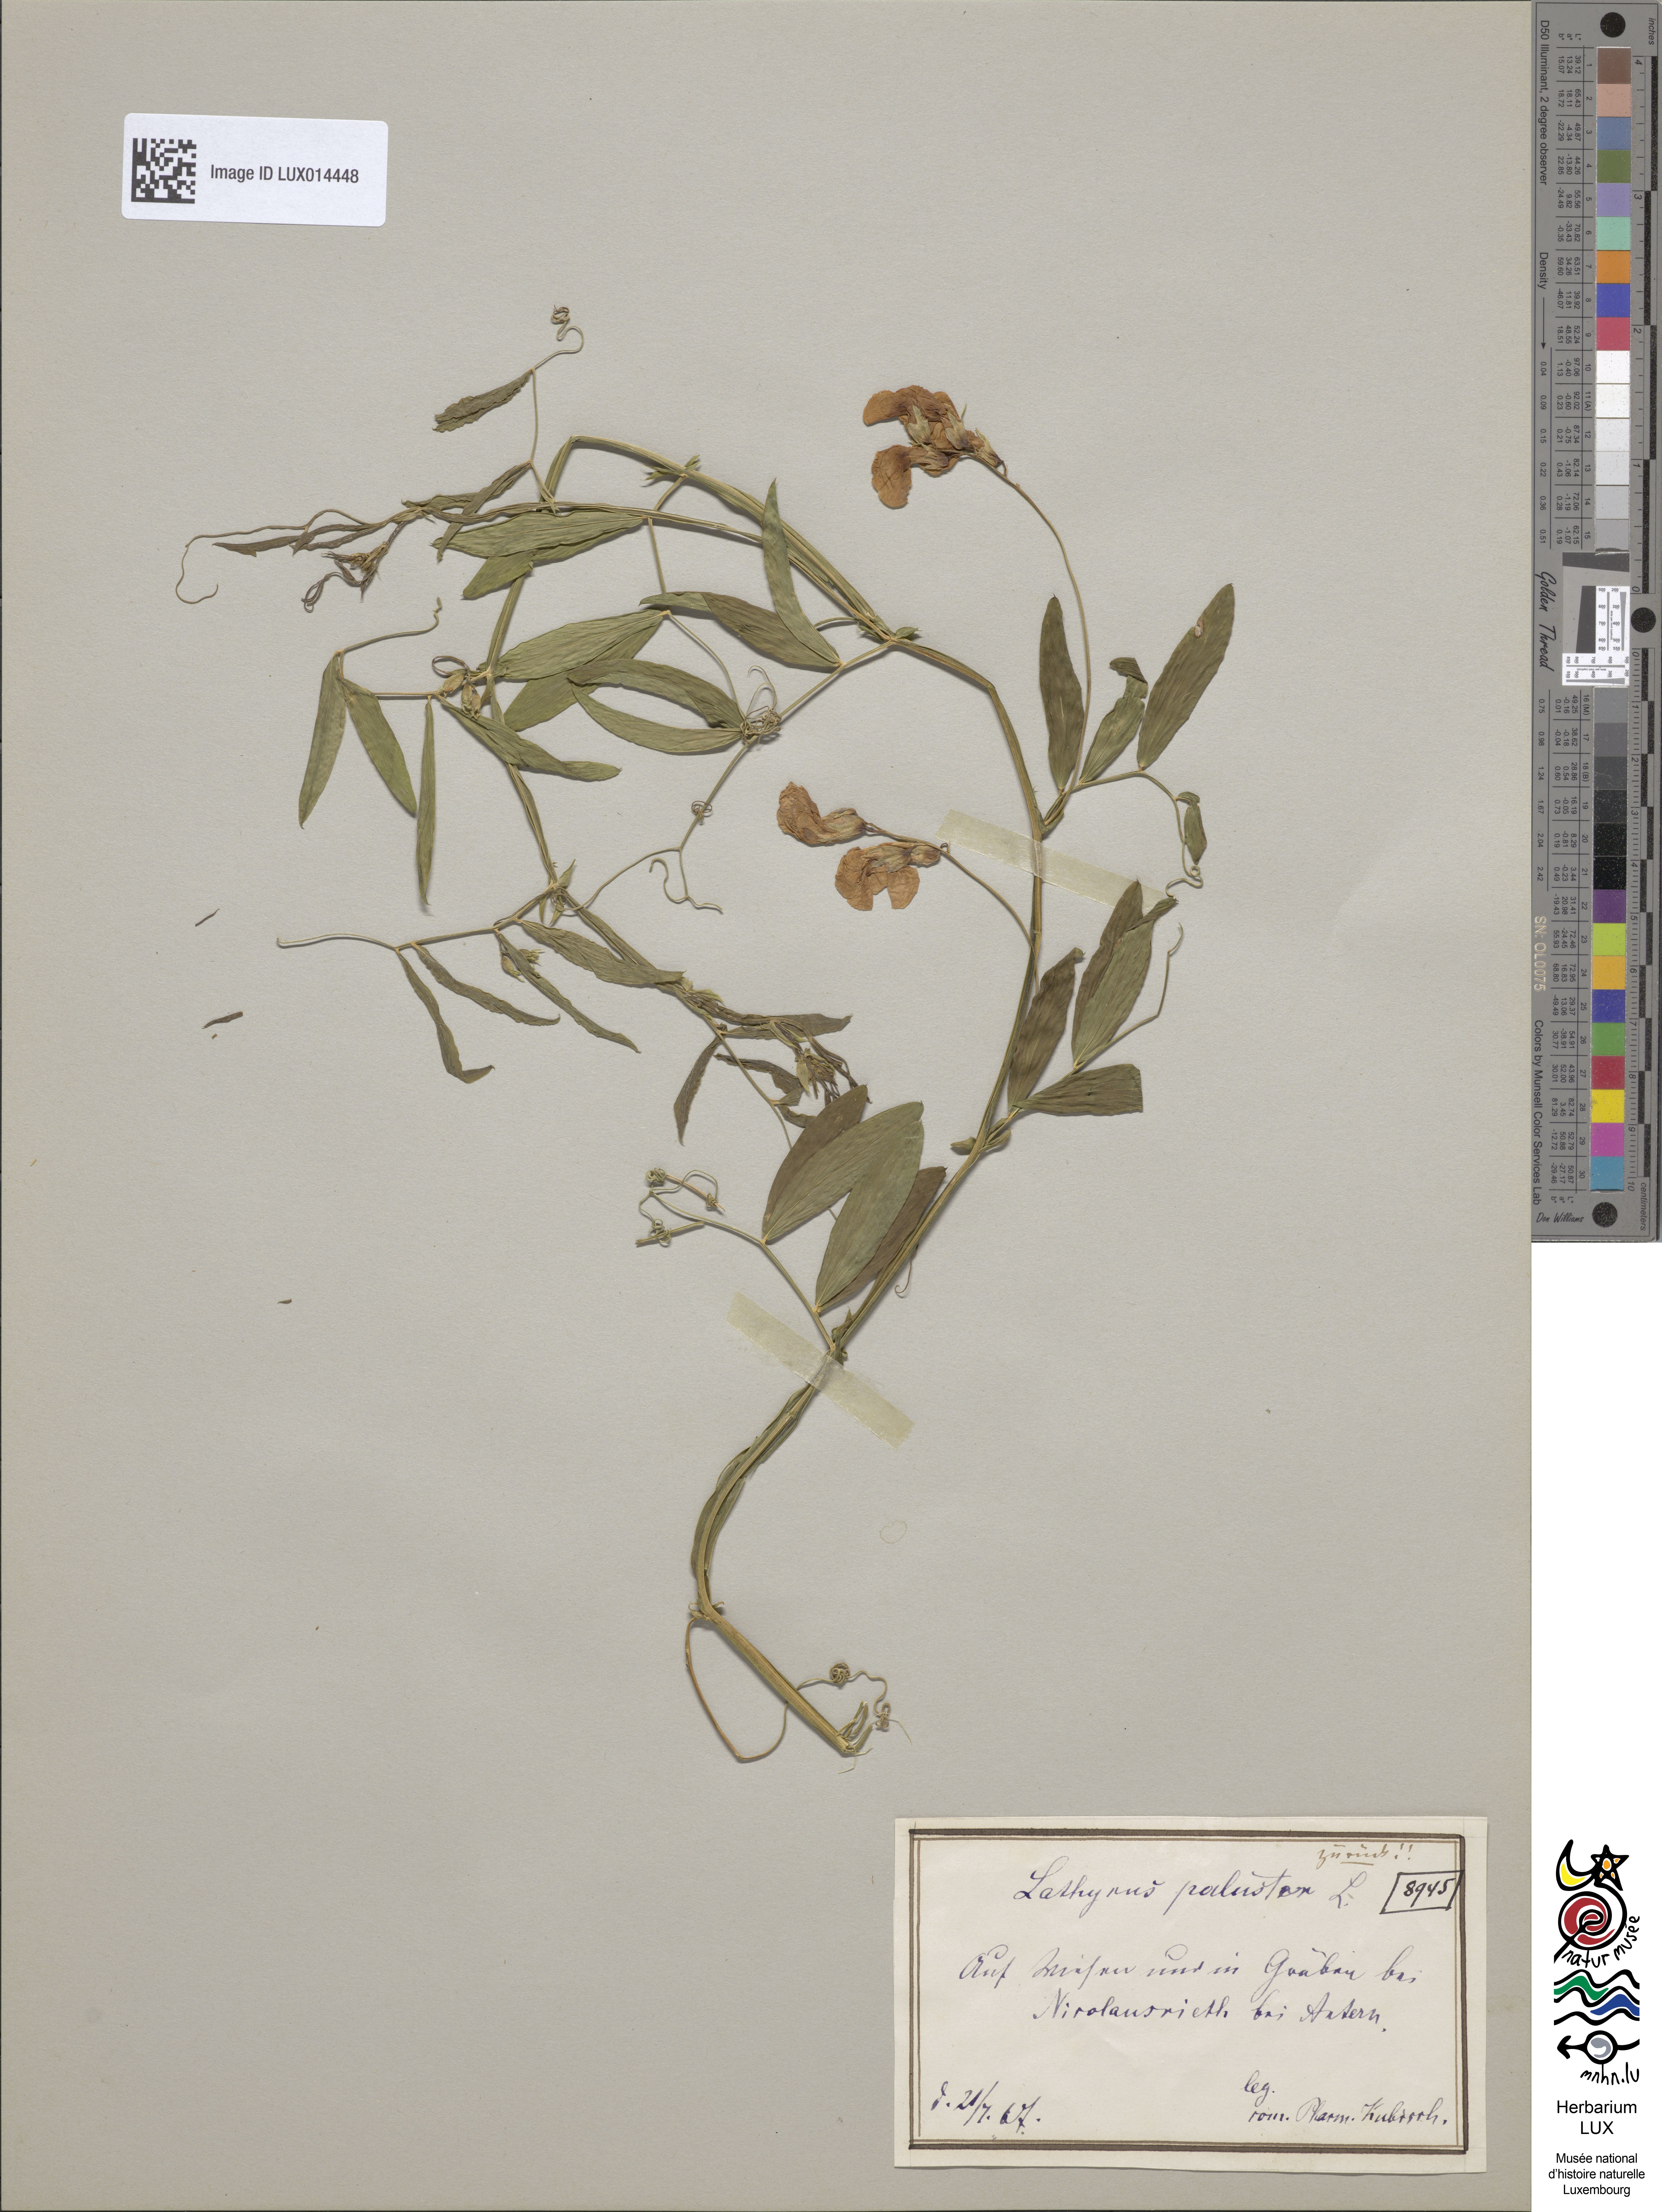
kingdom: Plantae
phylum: Tracheophyta
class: Magnoliopsida
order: Fabales
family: Fabaceae
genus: Lathyrus
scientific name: Lathyrus palustris
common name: Marsh pea
